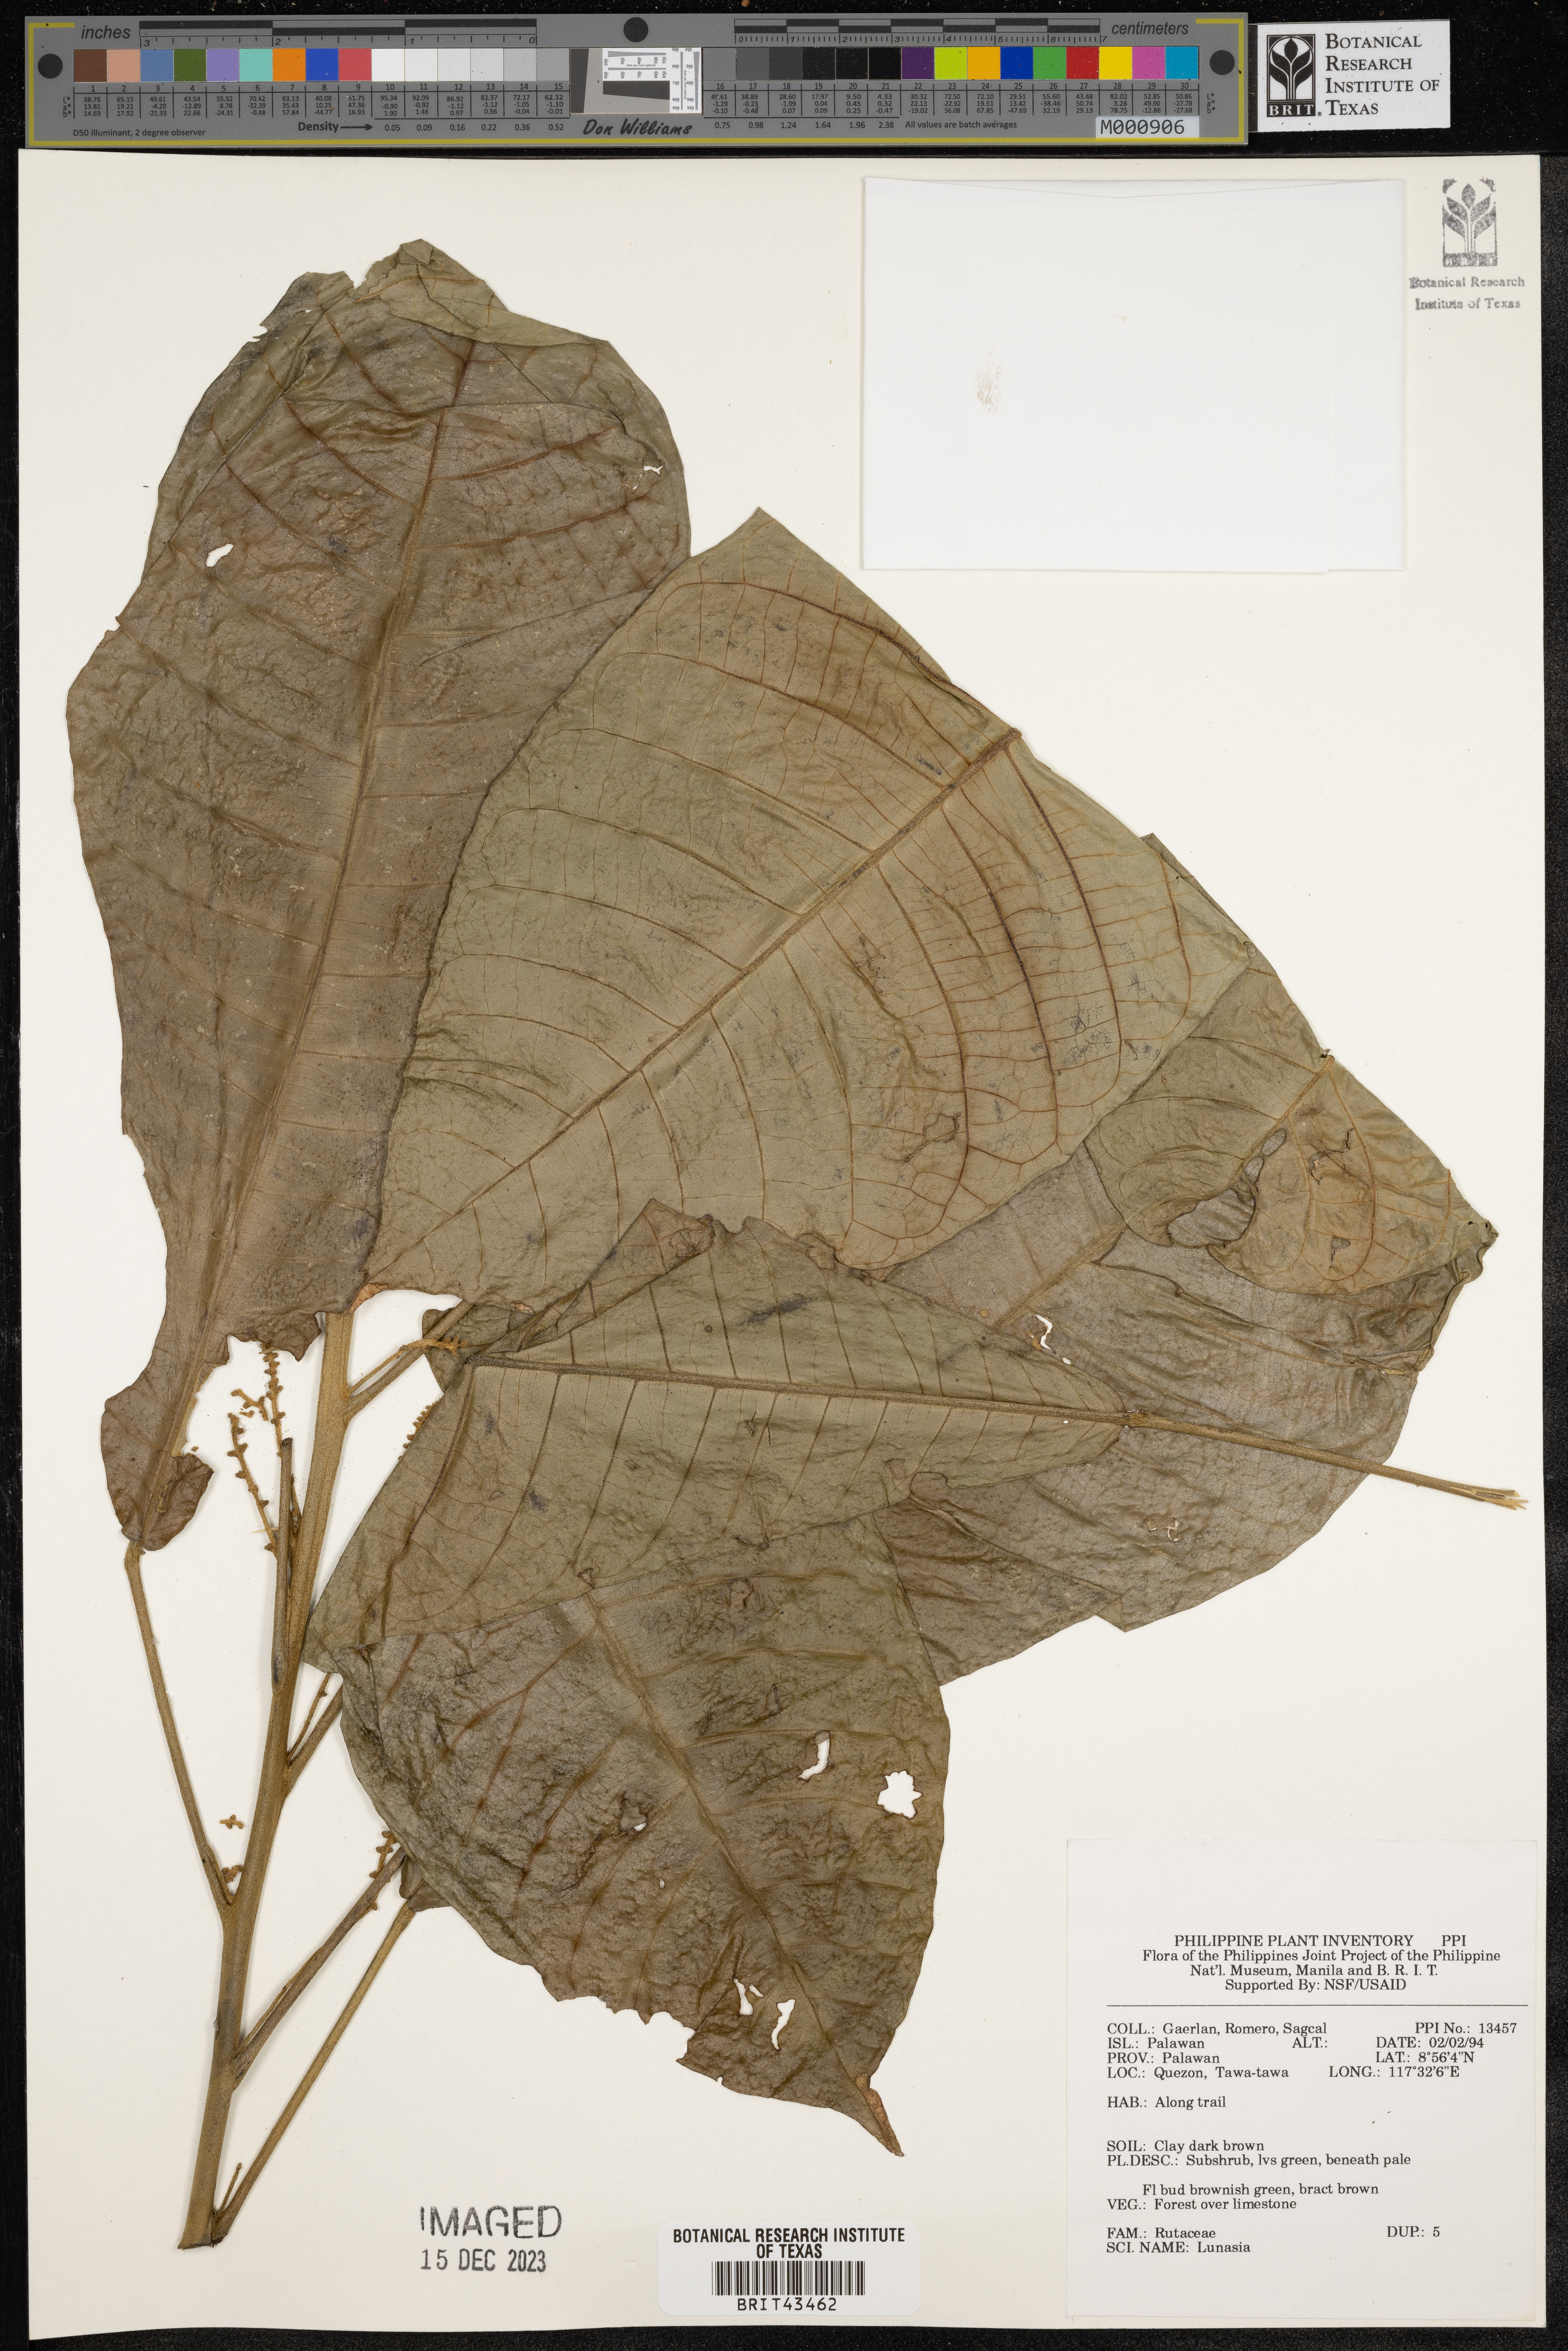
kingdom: Plantae
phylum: Tracheophyta
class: Magnoliopsida
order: Sapindales
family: Rutaceae
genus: Lunasia
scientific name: Lunasia
